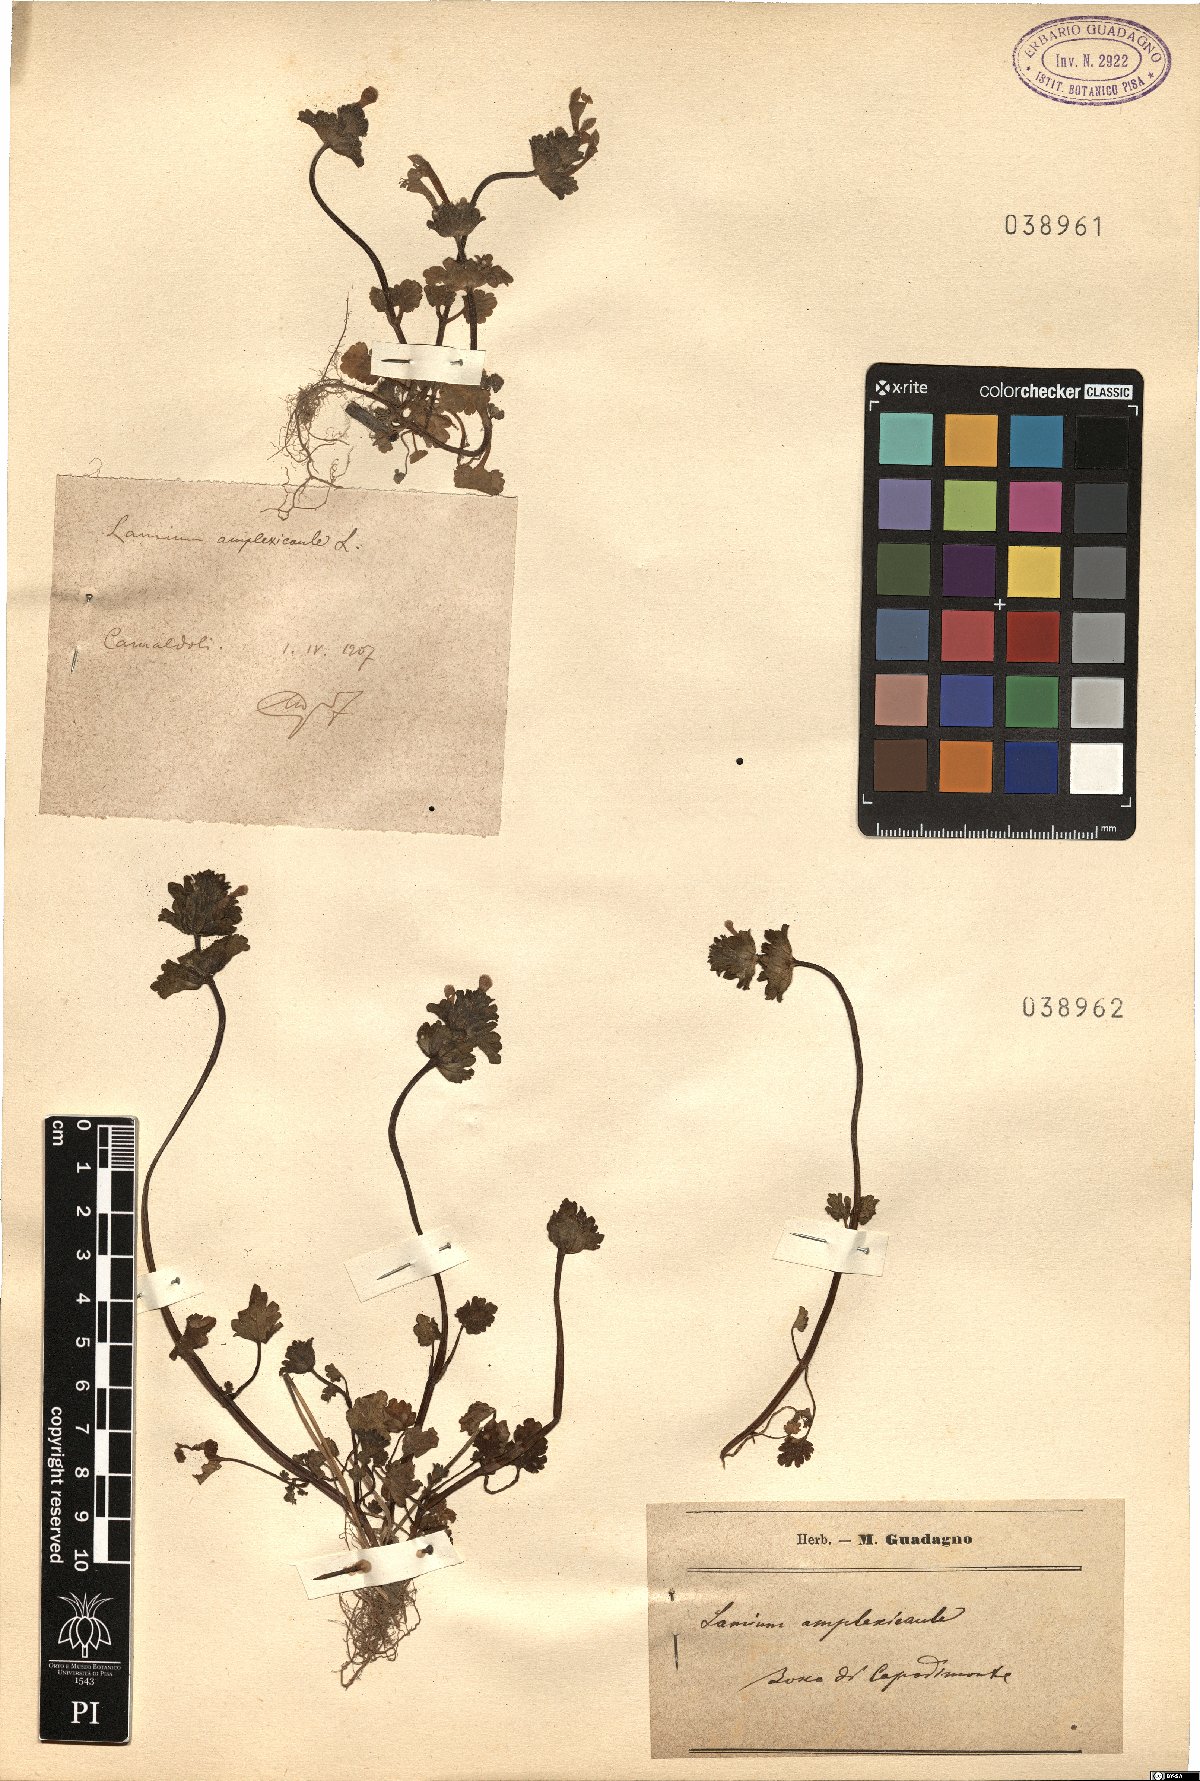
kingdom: Plantae
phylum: Tracheophyta
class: Magnoliopsida
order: Lamiales
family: Lamiaceae
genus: Lamium
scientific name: Lamium amplexicaule
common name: Henbit dead-nettle
